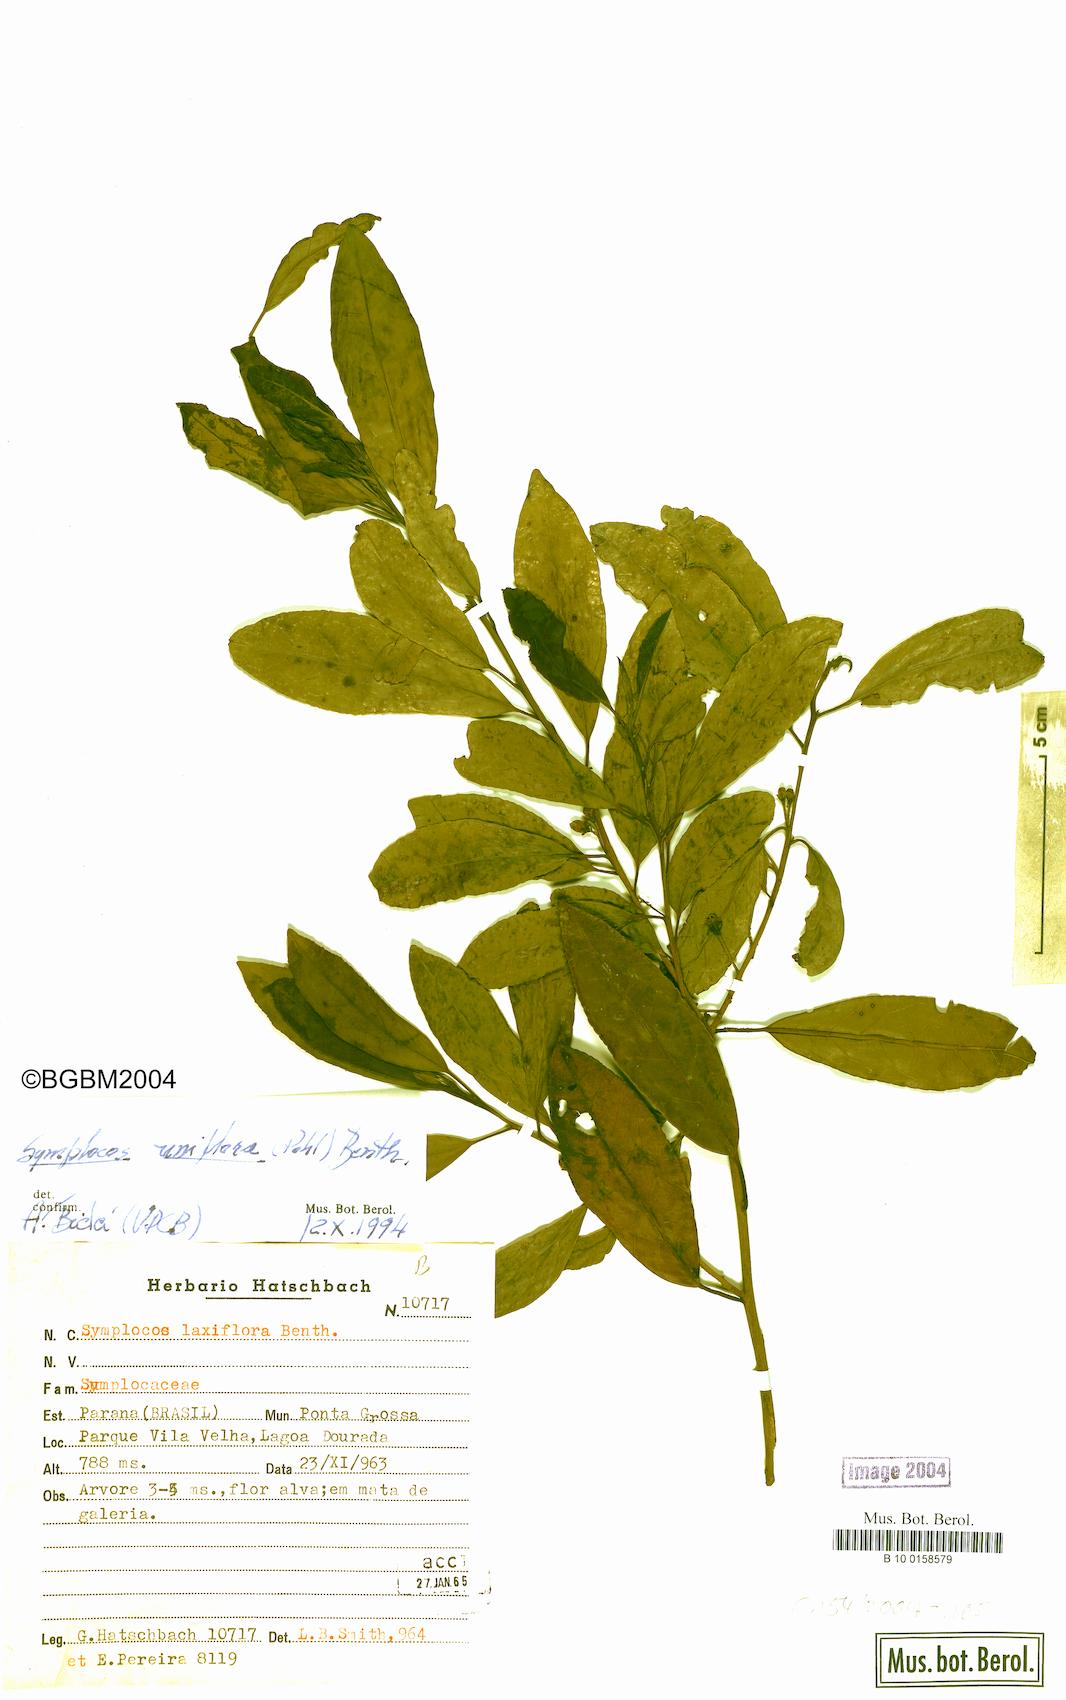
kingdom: Plantae
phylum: Tracheophyta
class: Magnoliopsida
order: Ericales
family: Symplocaceae
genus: Symplocos
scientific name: Symplocos uniflora
